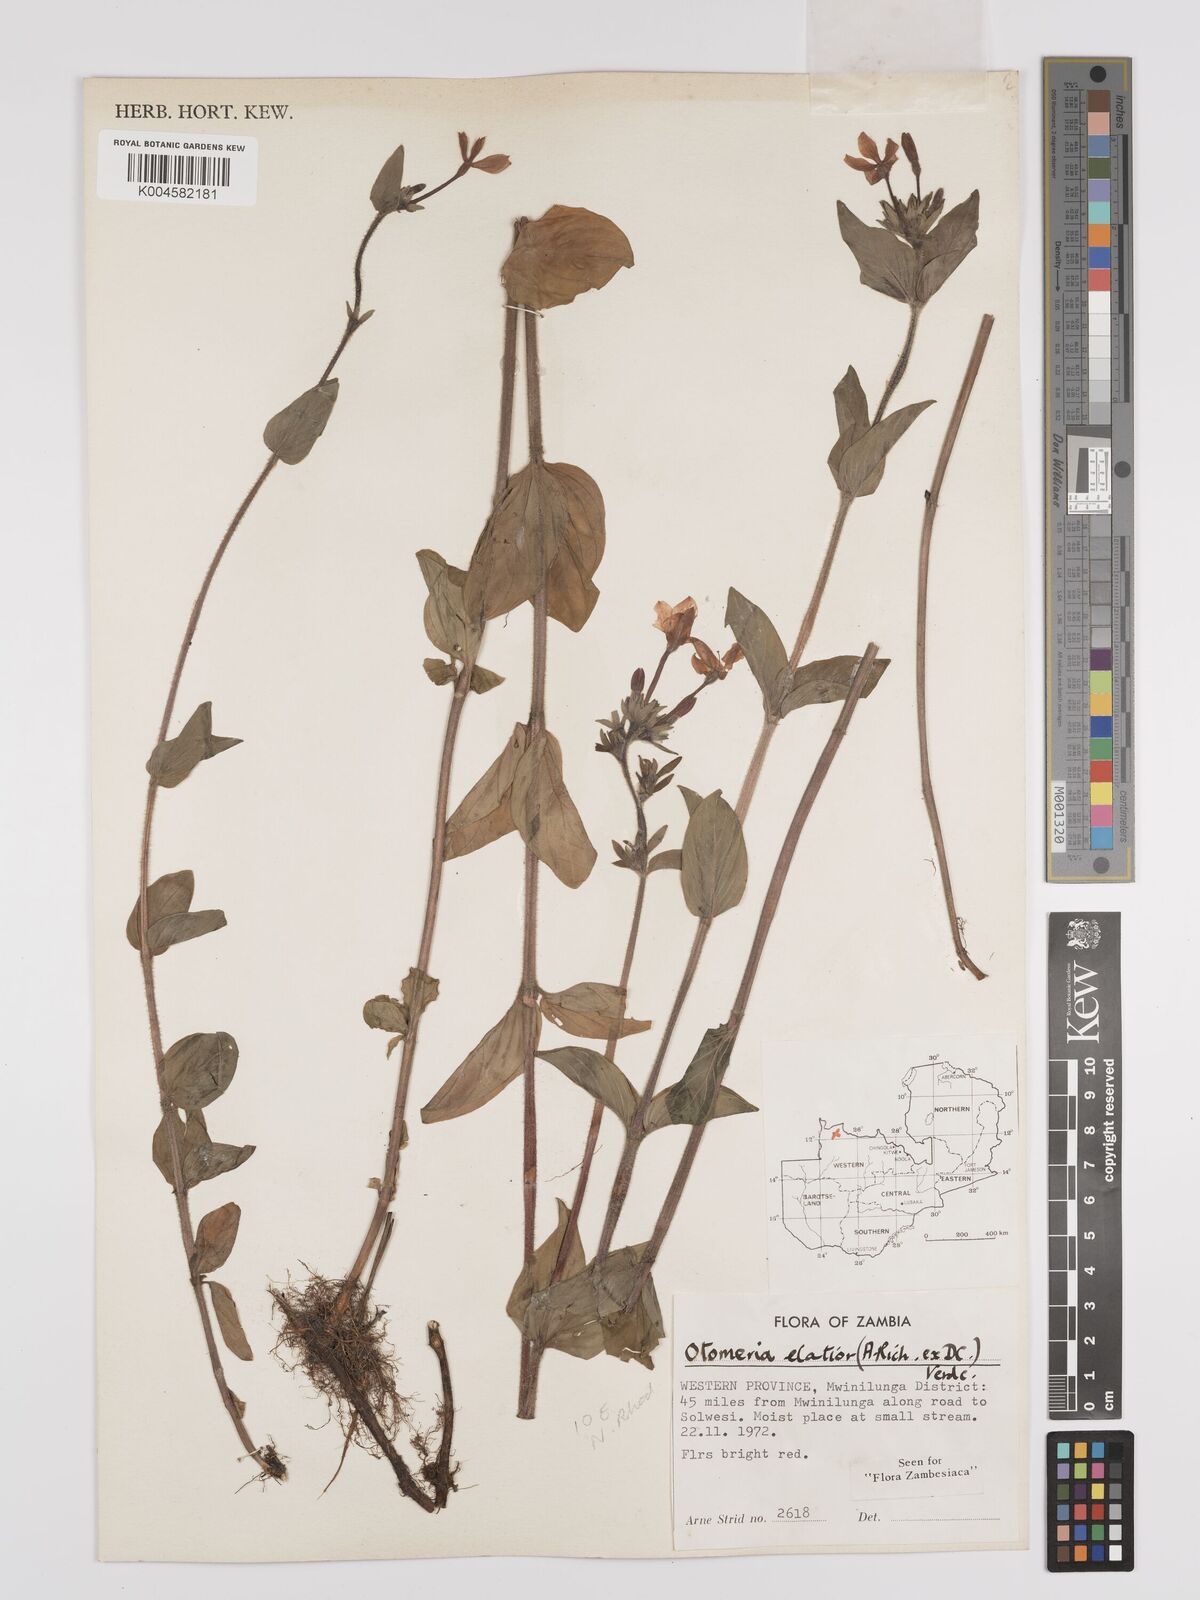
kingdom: Plantae
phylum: Tracheophyta
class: Magnoliopsida
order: Gentianales
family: Rubiaceae
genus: Otomeria
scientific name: Otomeria elatior
